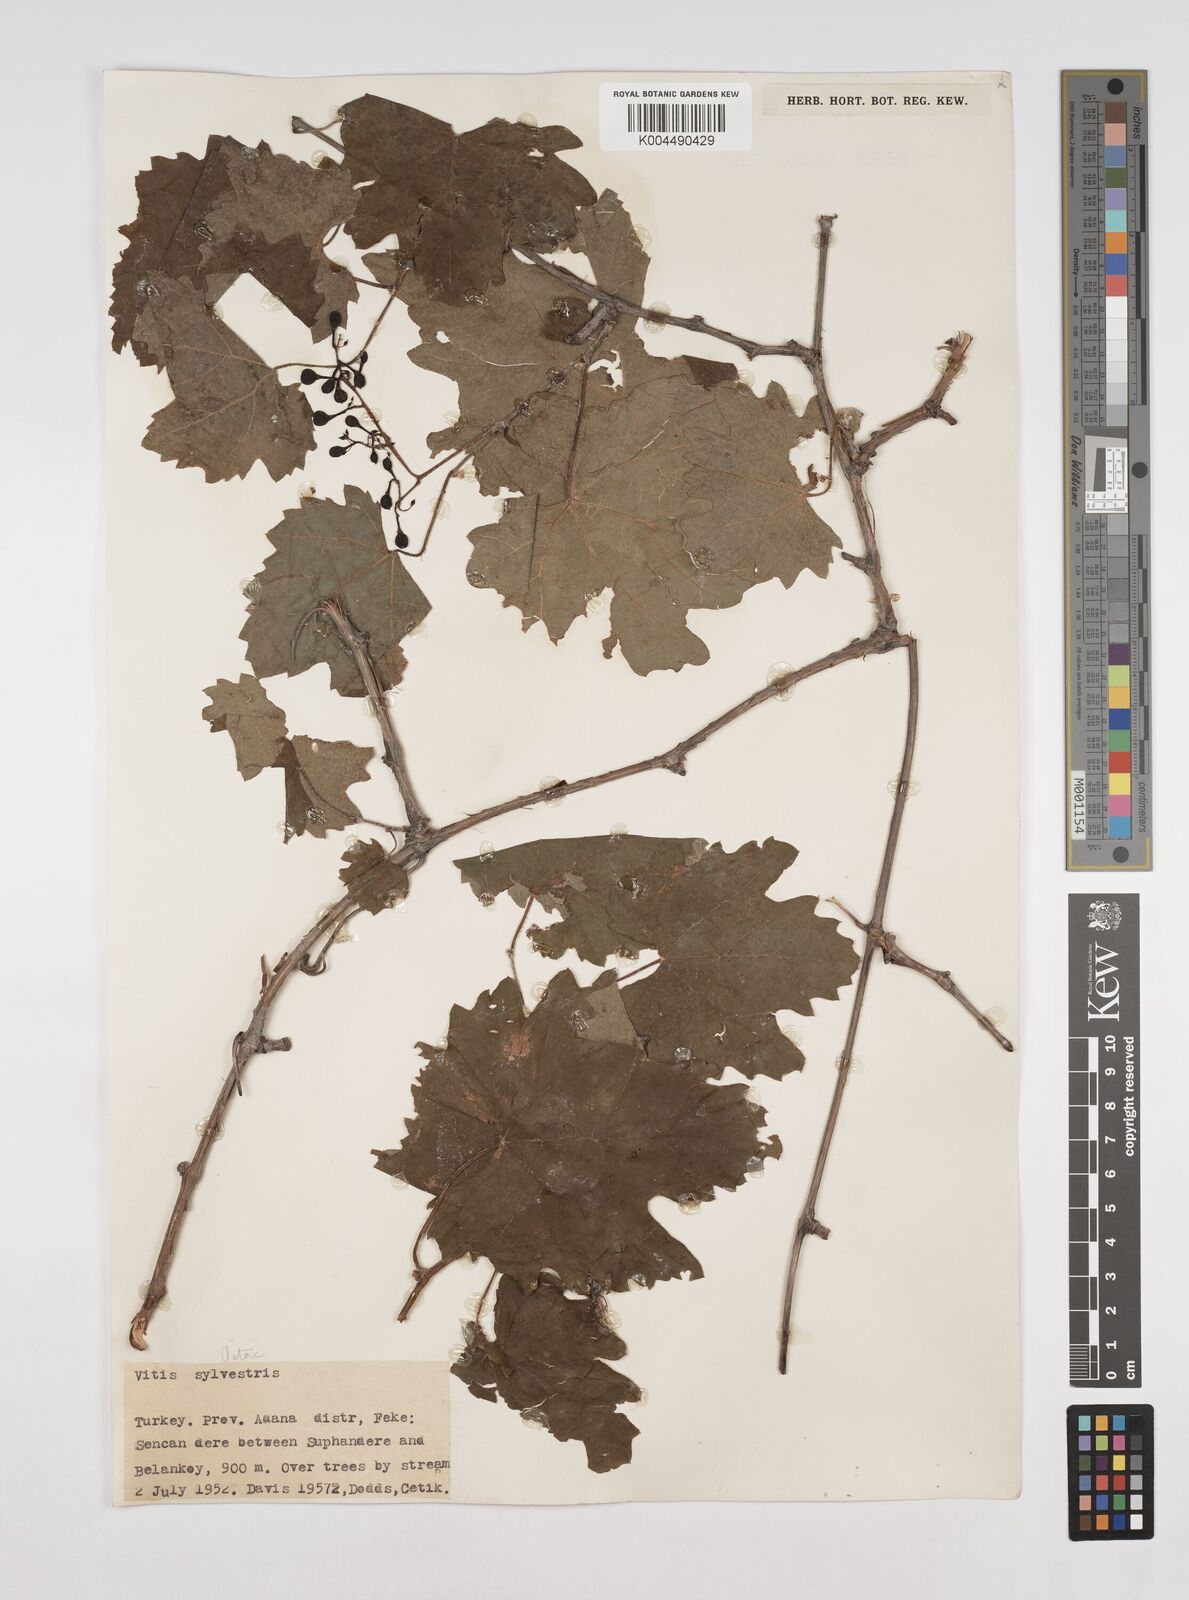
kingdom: Plantae
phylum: Tracheophyta
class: Magnoliopsida
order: Vitales
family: Vitaceae
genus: Vitis
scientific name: Vitis gmelinii
